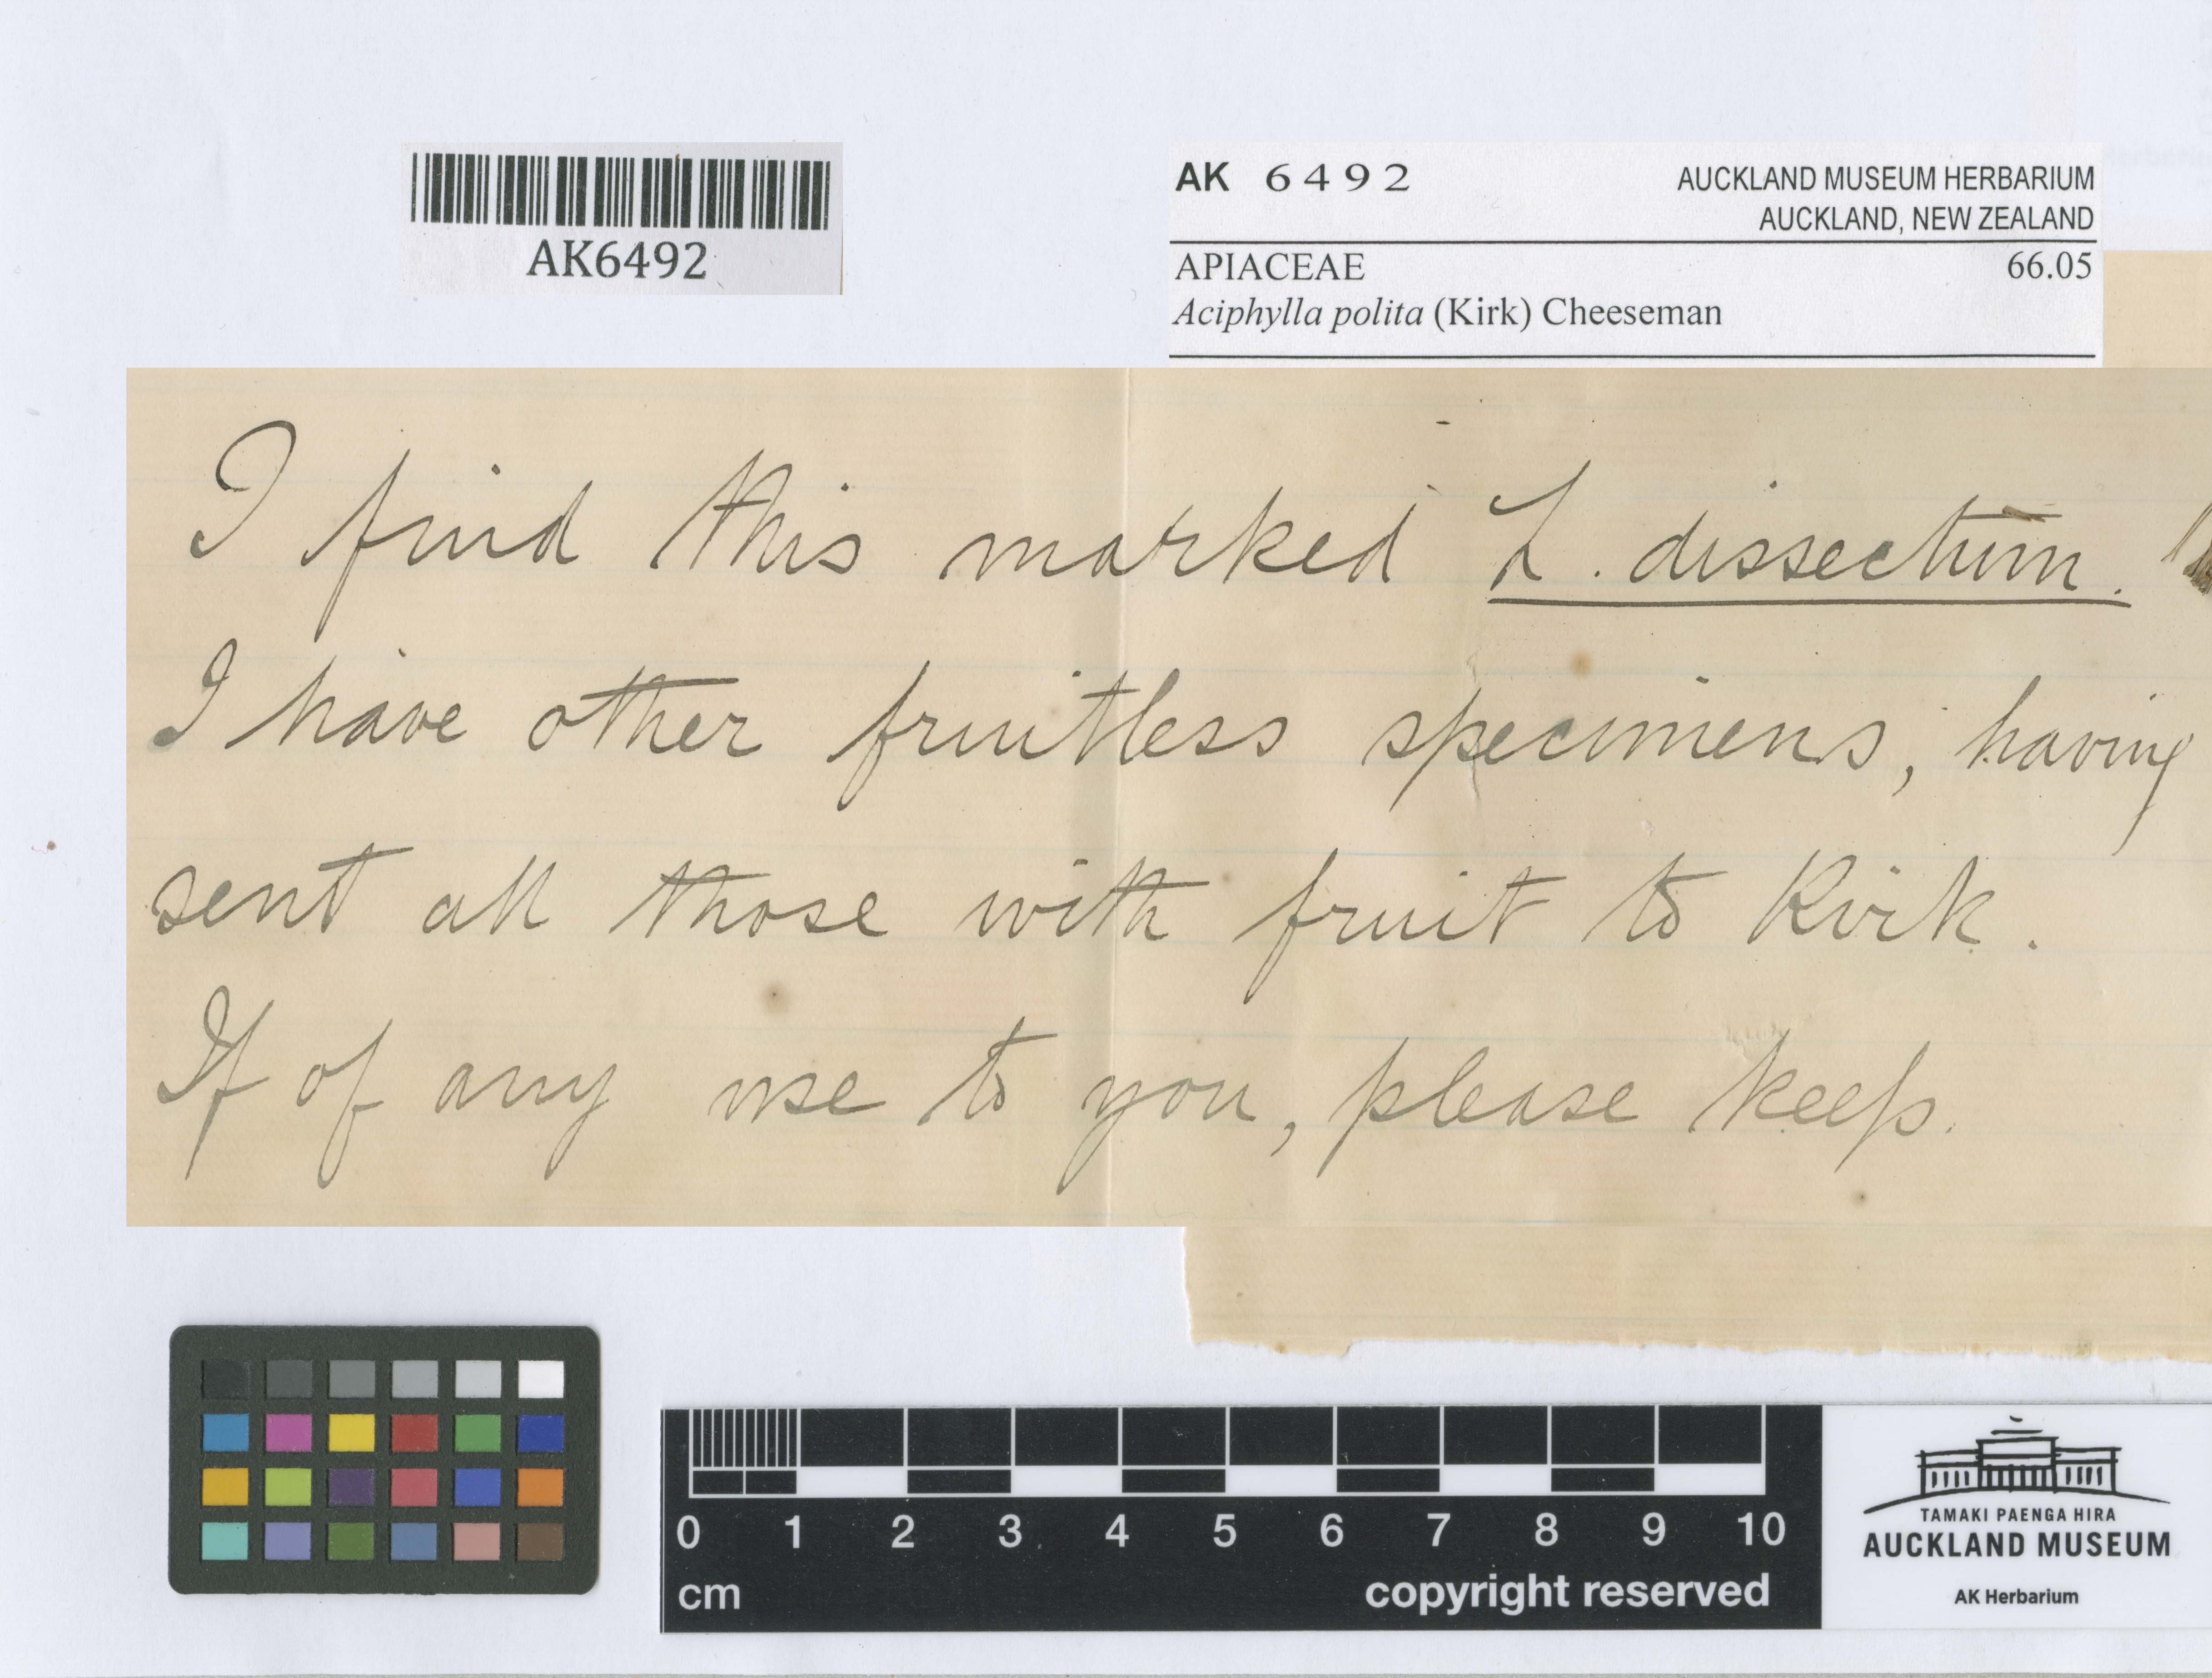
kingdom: Plantae
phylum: Tracheophyta
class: Magnoliopsida
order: Apiales
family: Apiaceae
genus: Aciphylla
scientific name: Aciphylla polita
